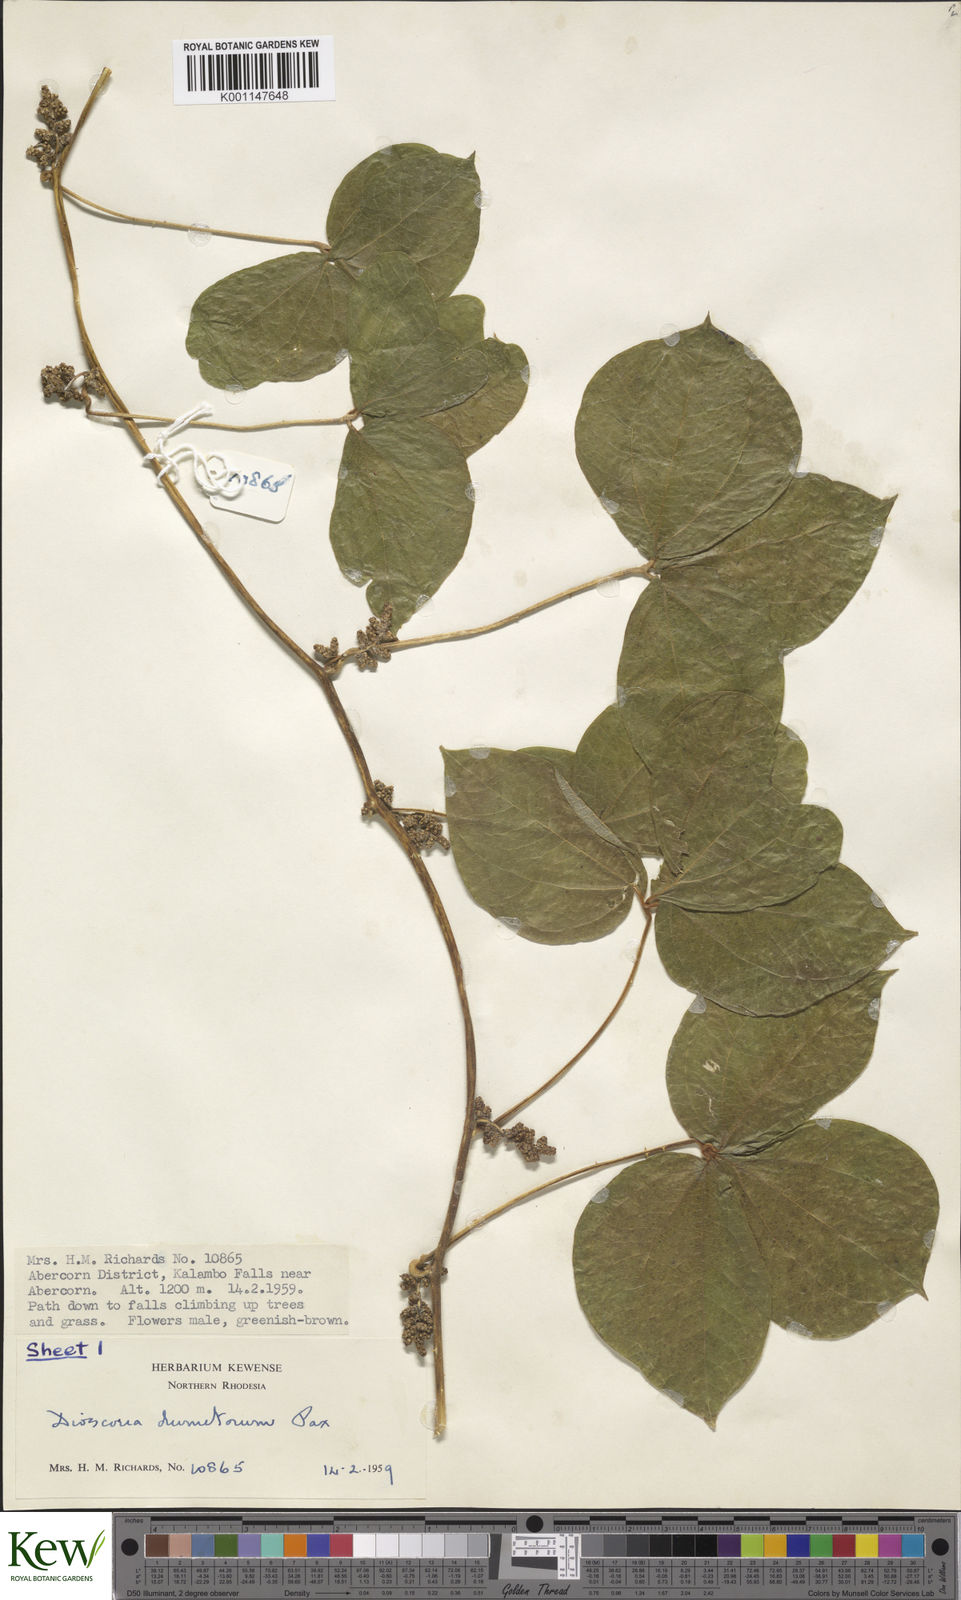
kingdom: Plantae
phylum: Tracheophyta
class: Liliopsida
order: Dioscoreales
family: Dioscoreaceae
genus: Dioscorea
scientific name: Dioscorea dumetorum
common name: African bitter yam
